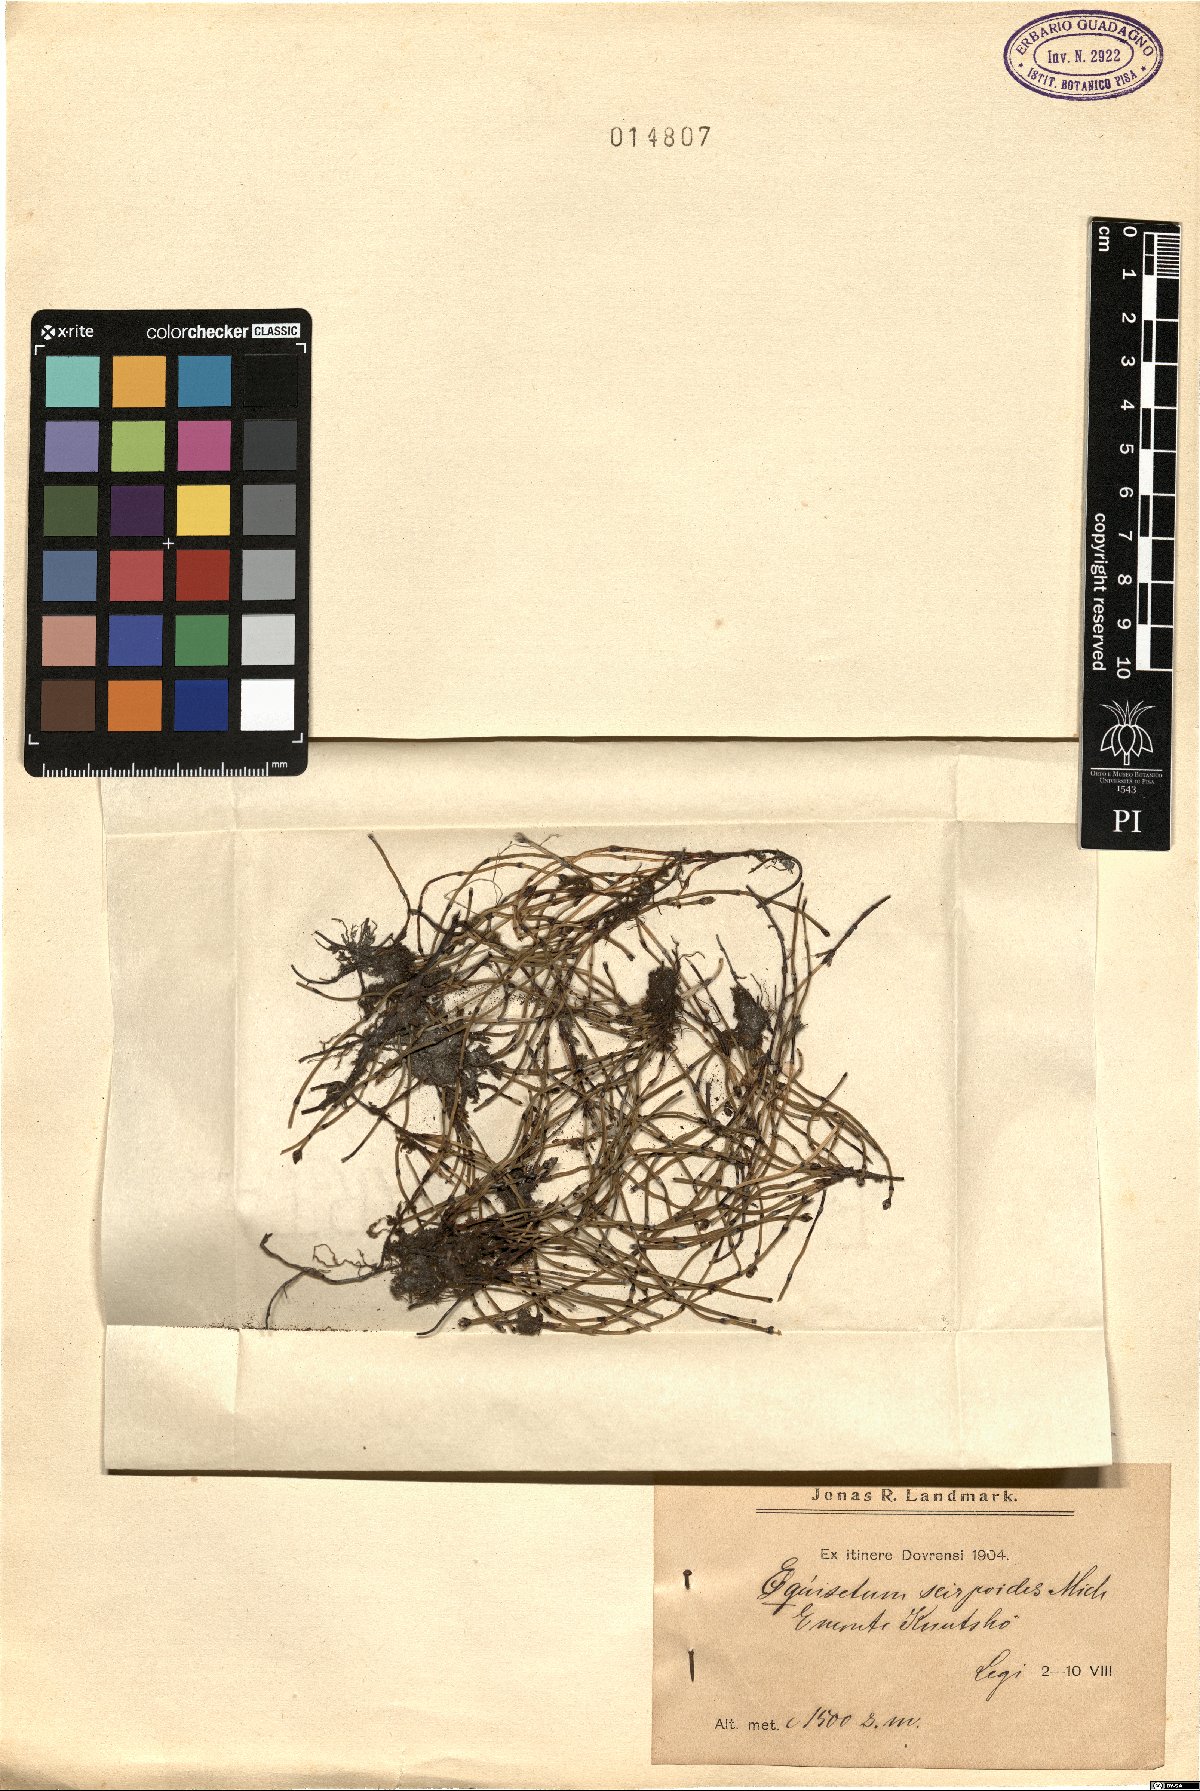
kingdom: Plantae
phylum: Tracheophyta
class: Polypodiopsida
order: Equisetales
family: Equisetaceae
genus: Equisetum
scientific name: Equisetum scirpoides
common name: Delicate horsetail
